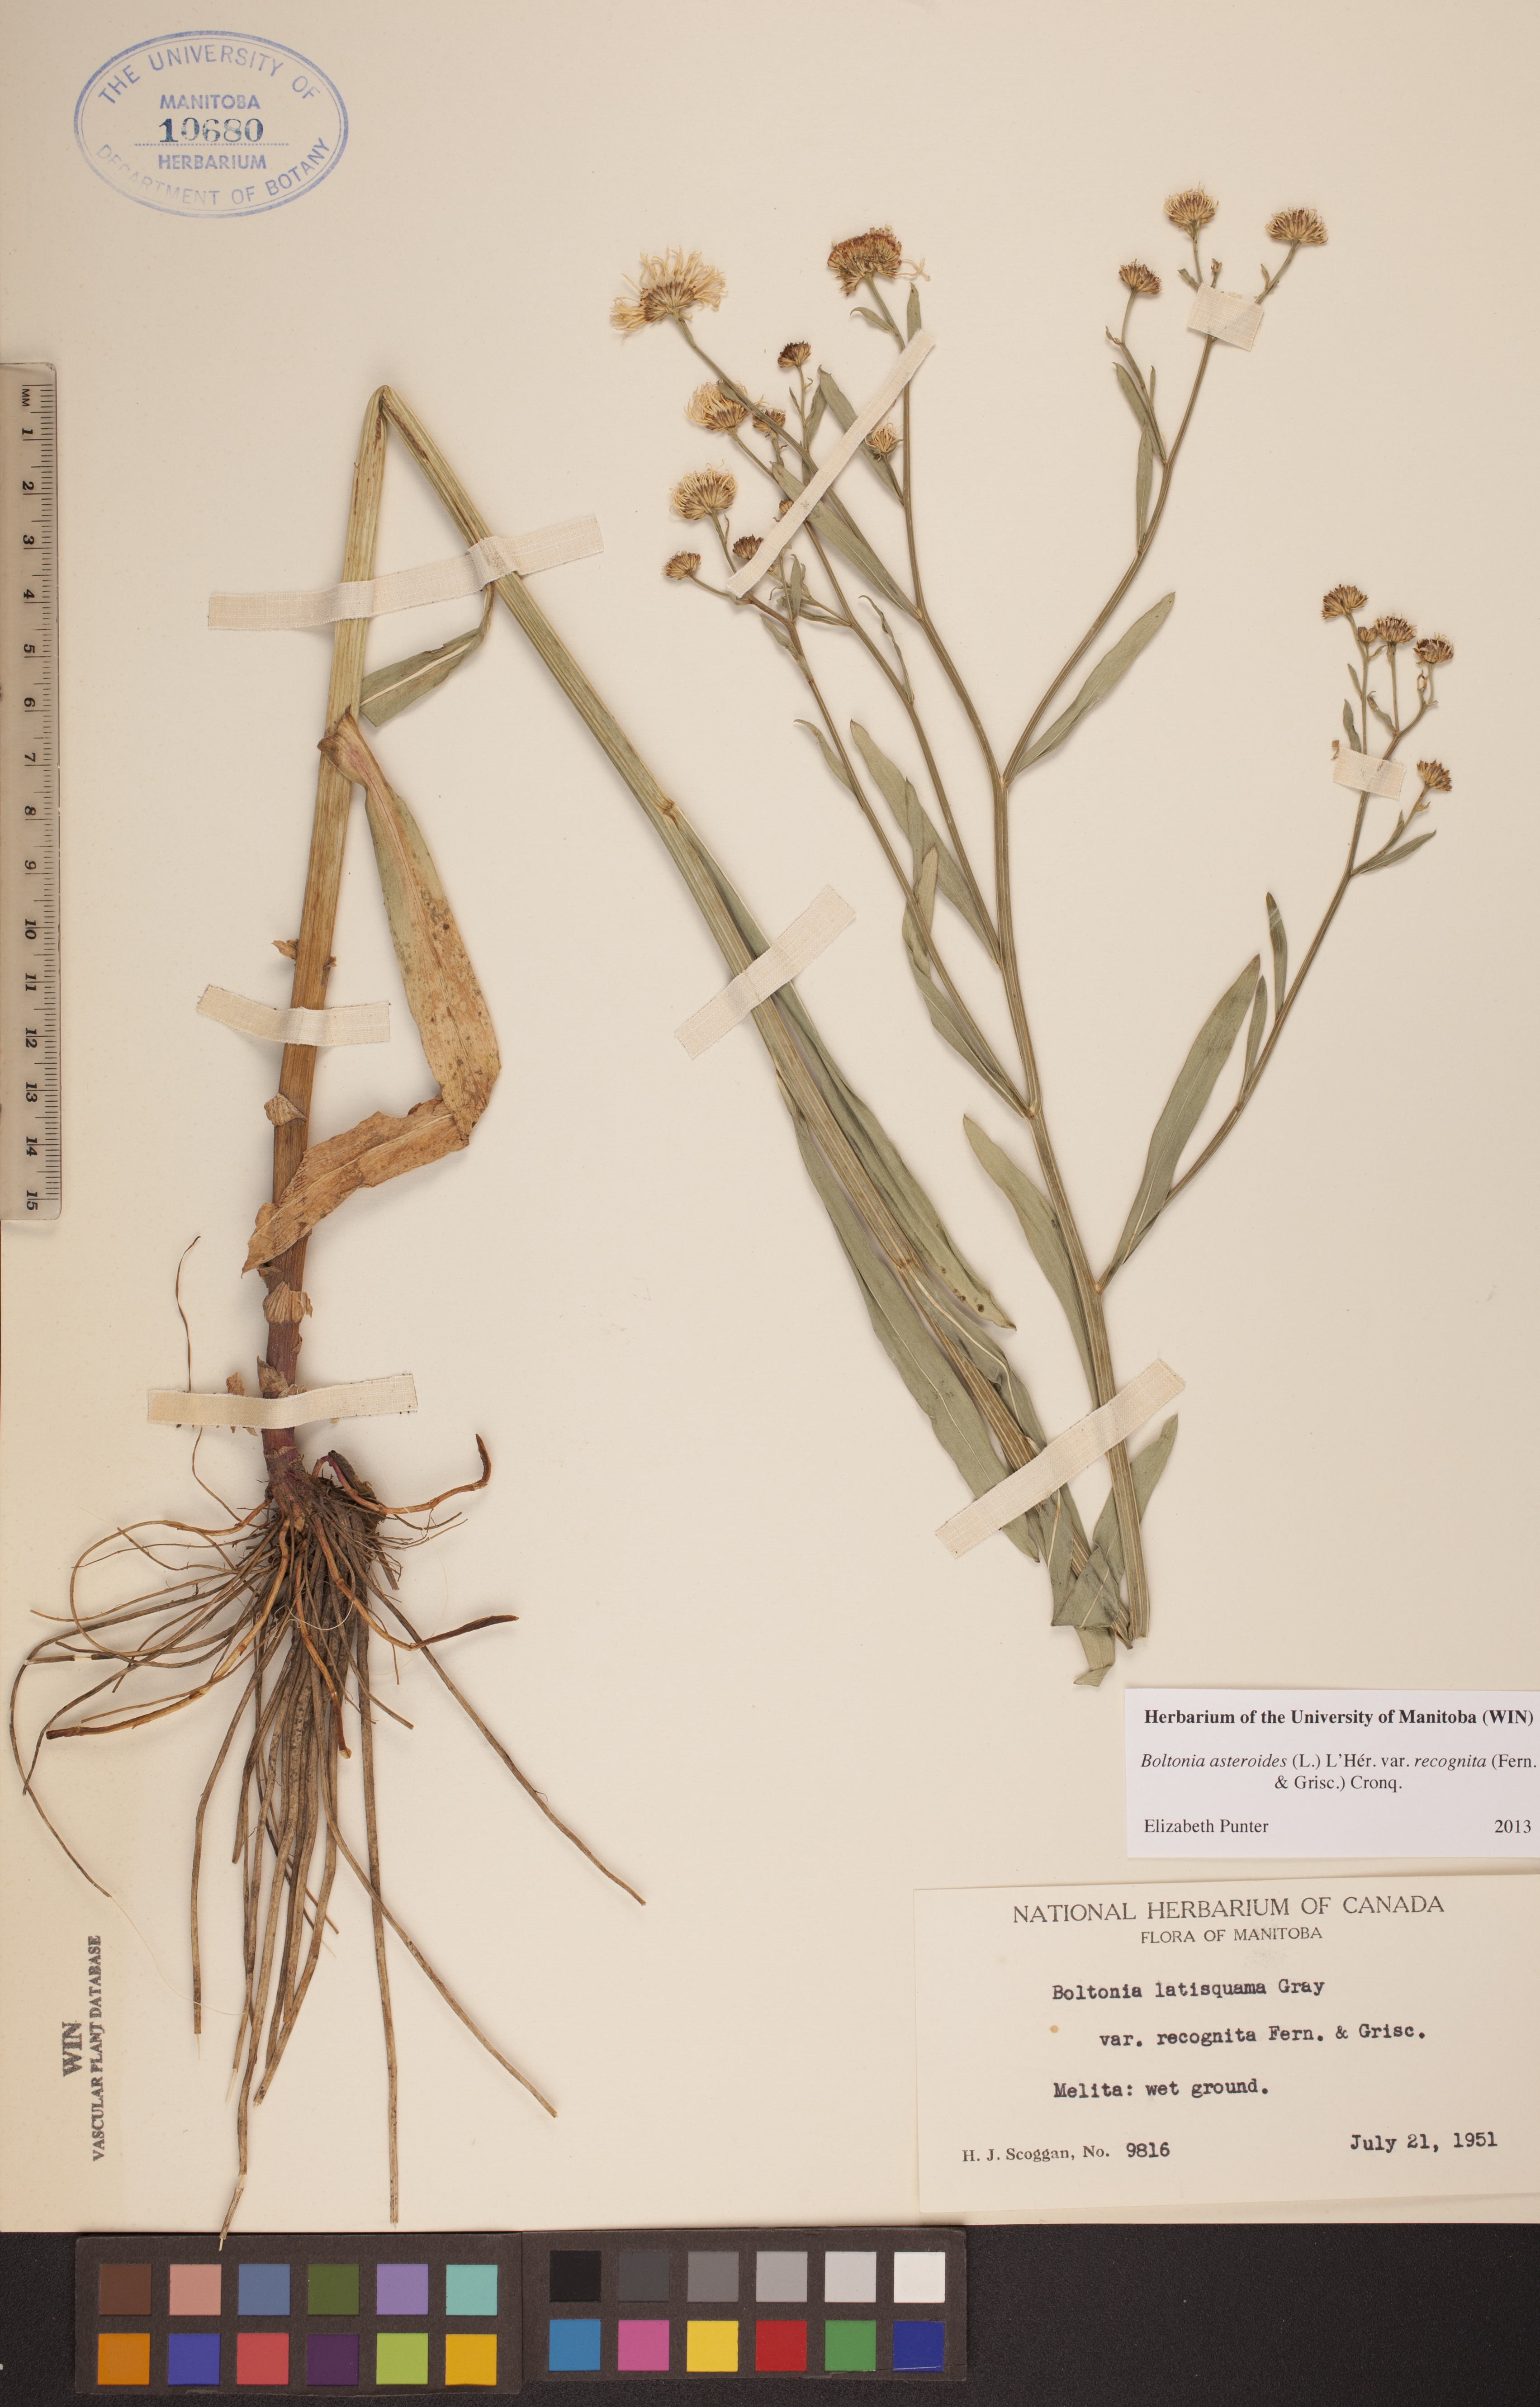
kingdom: Plantae
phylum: Tracheophyta
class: Magnoliopsida
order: Asterales
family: Asteraceae
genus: Boltonia
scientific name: Boltonia asteroides
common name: False chamomile
